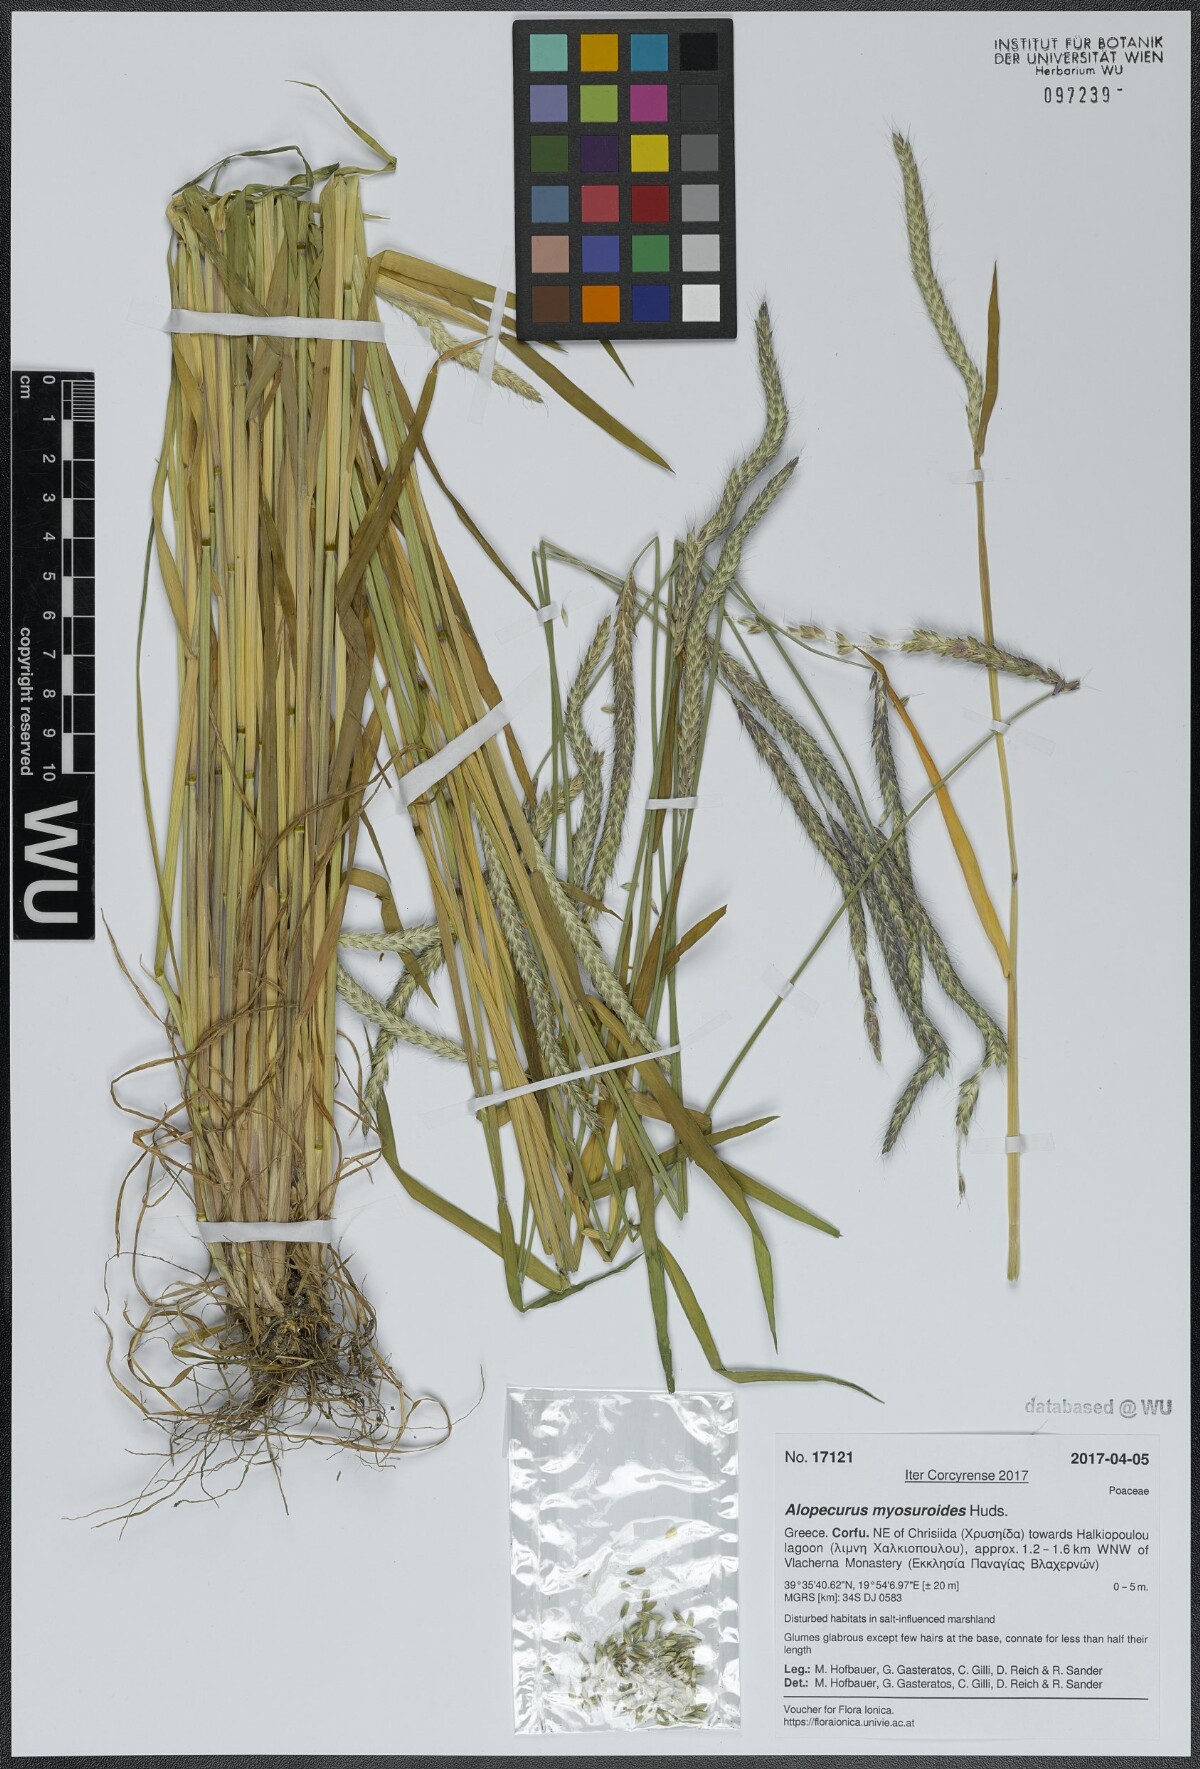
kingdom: Plantae
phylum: Tracheophyta
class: Liliopsida
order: Poales
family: Poaceae
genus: Alopecurus
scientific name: Alopecurus myosuroides
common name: Black-grass
